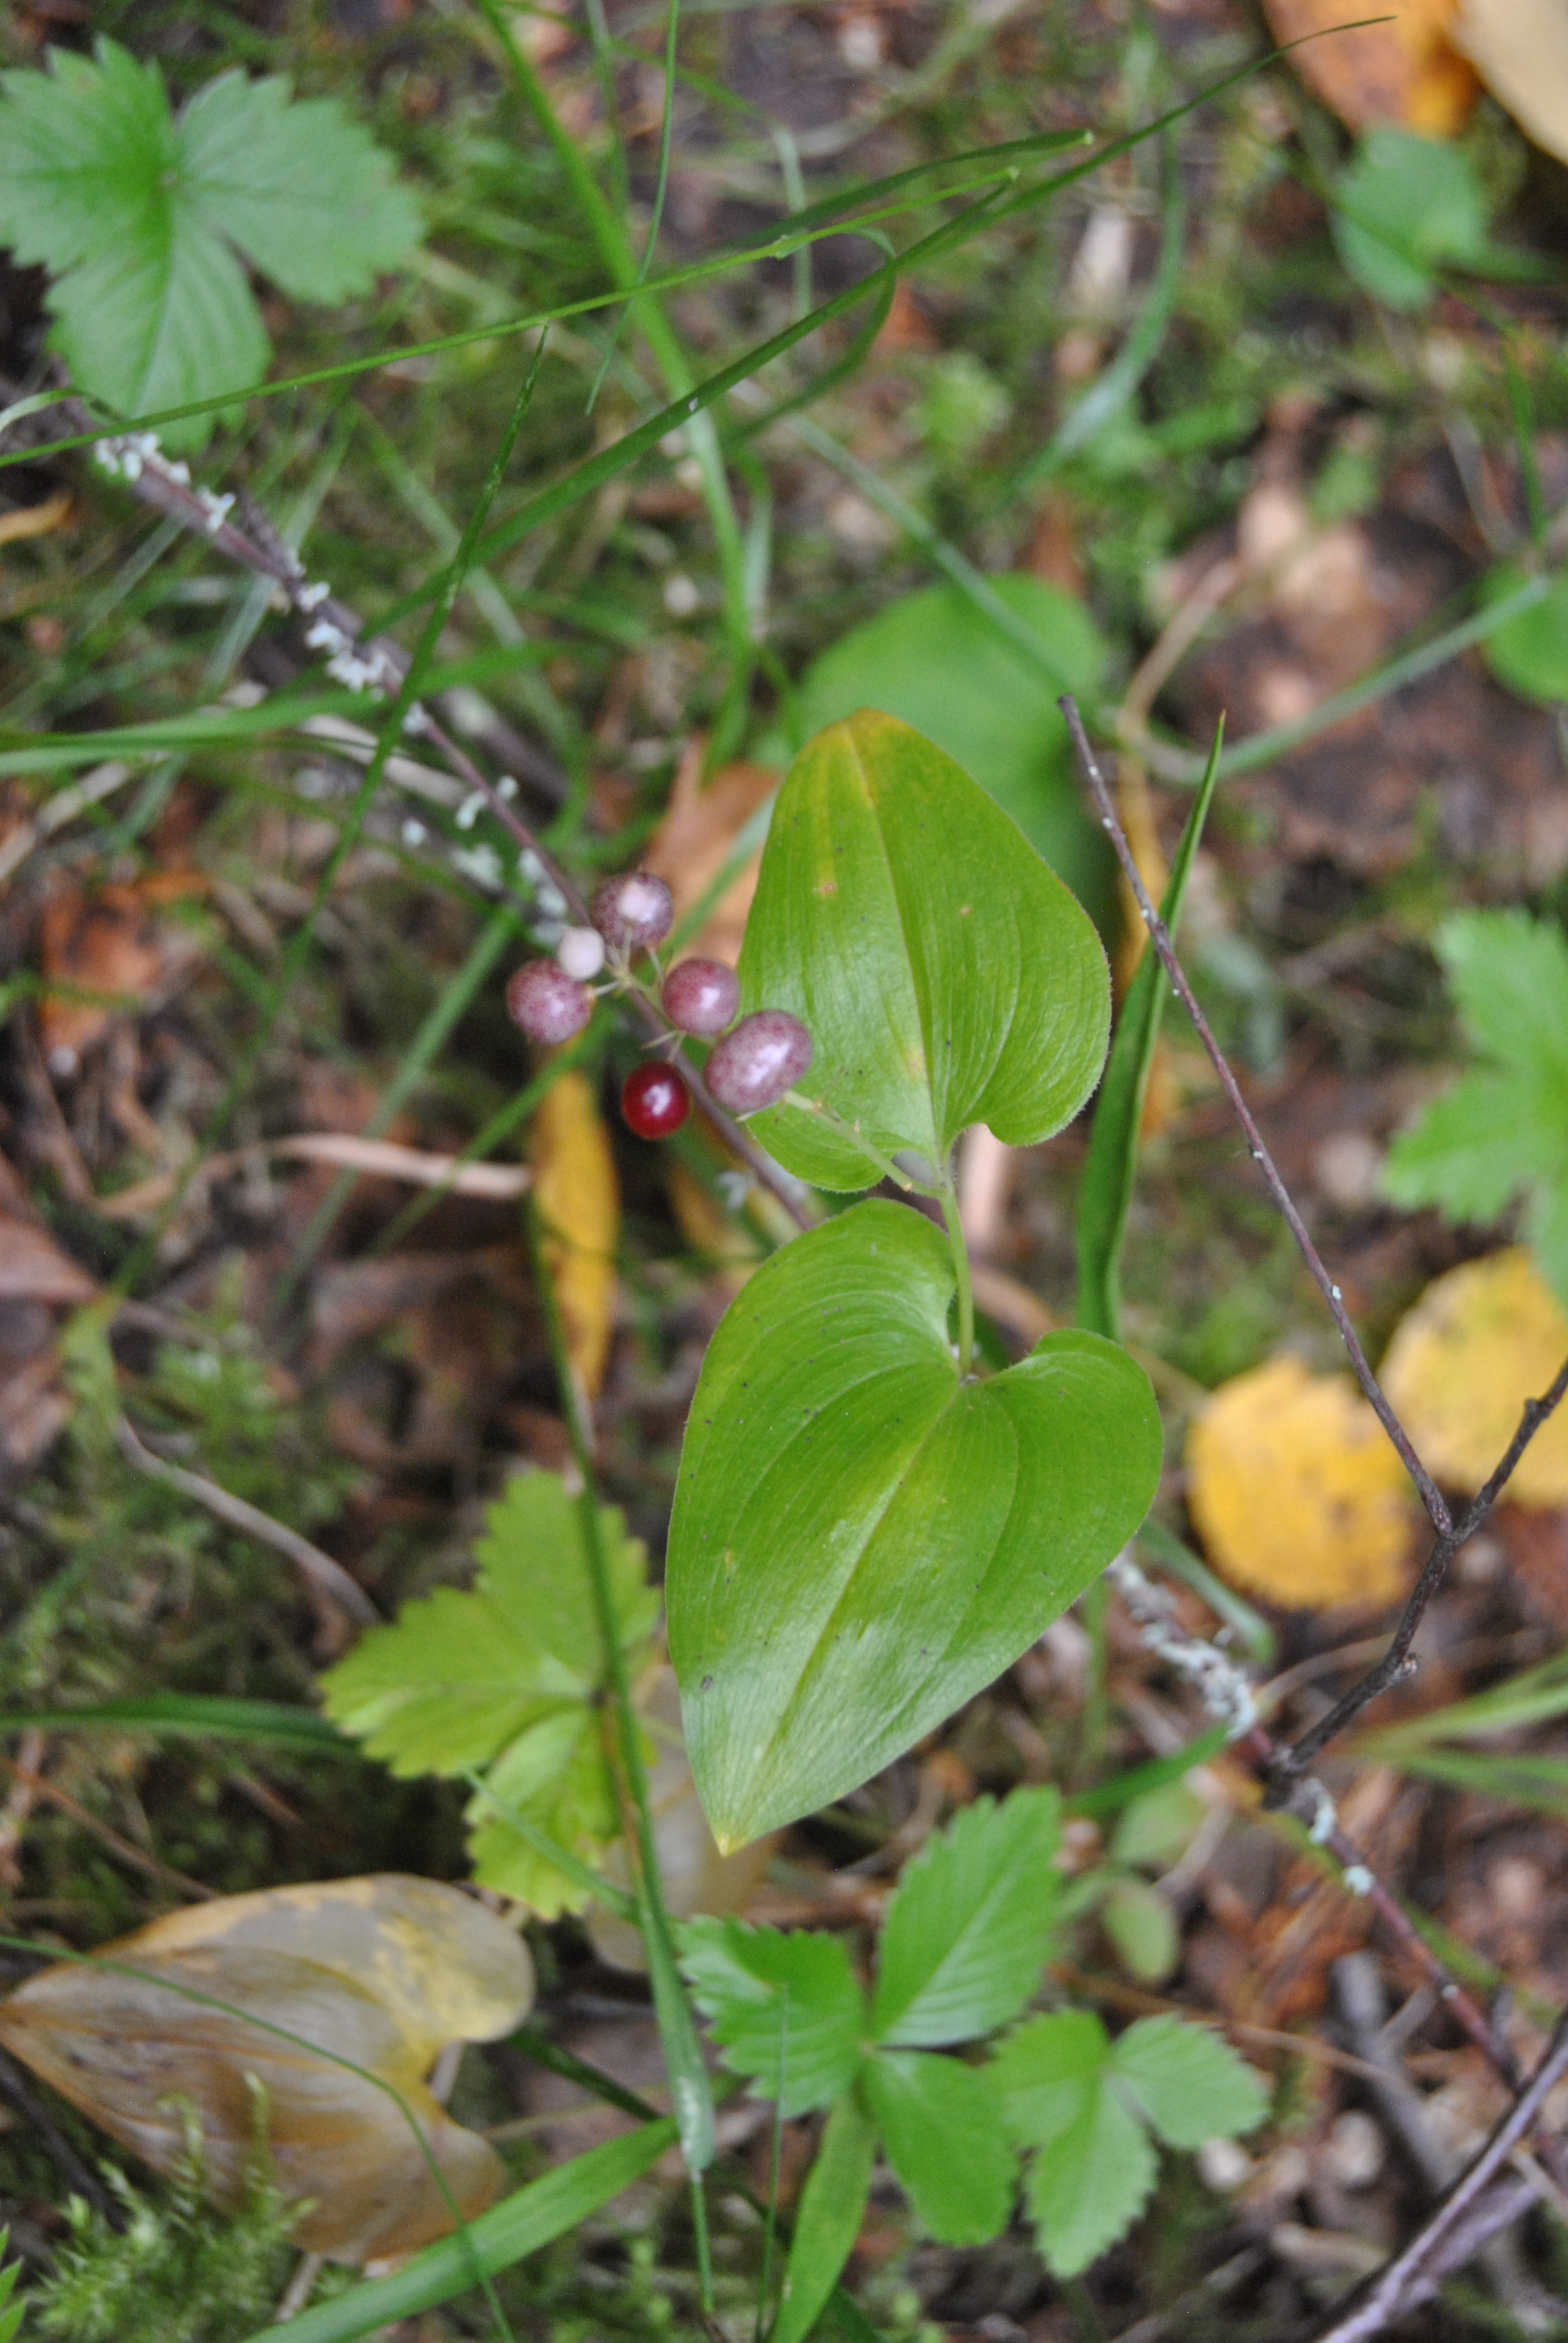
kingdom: Plantae
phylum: Tracheophyta
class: Liliopsida
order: Asparagales
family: Asparagaceae
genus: Maianthemum
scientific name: Maianthemum bifolium
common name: May lily
